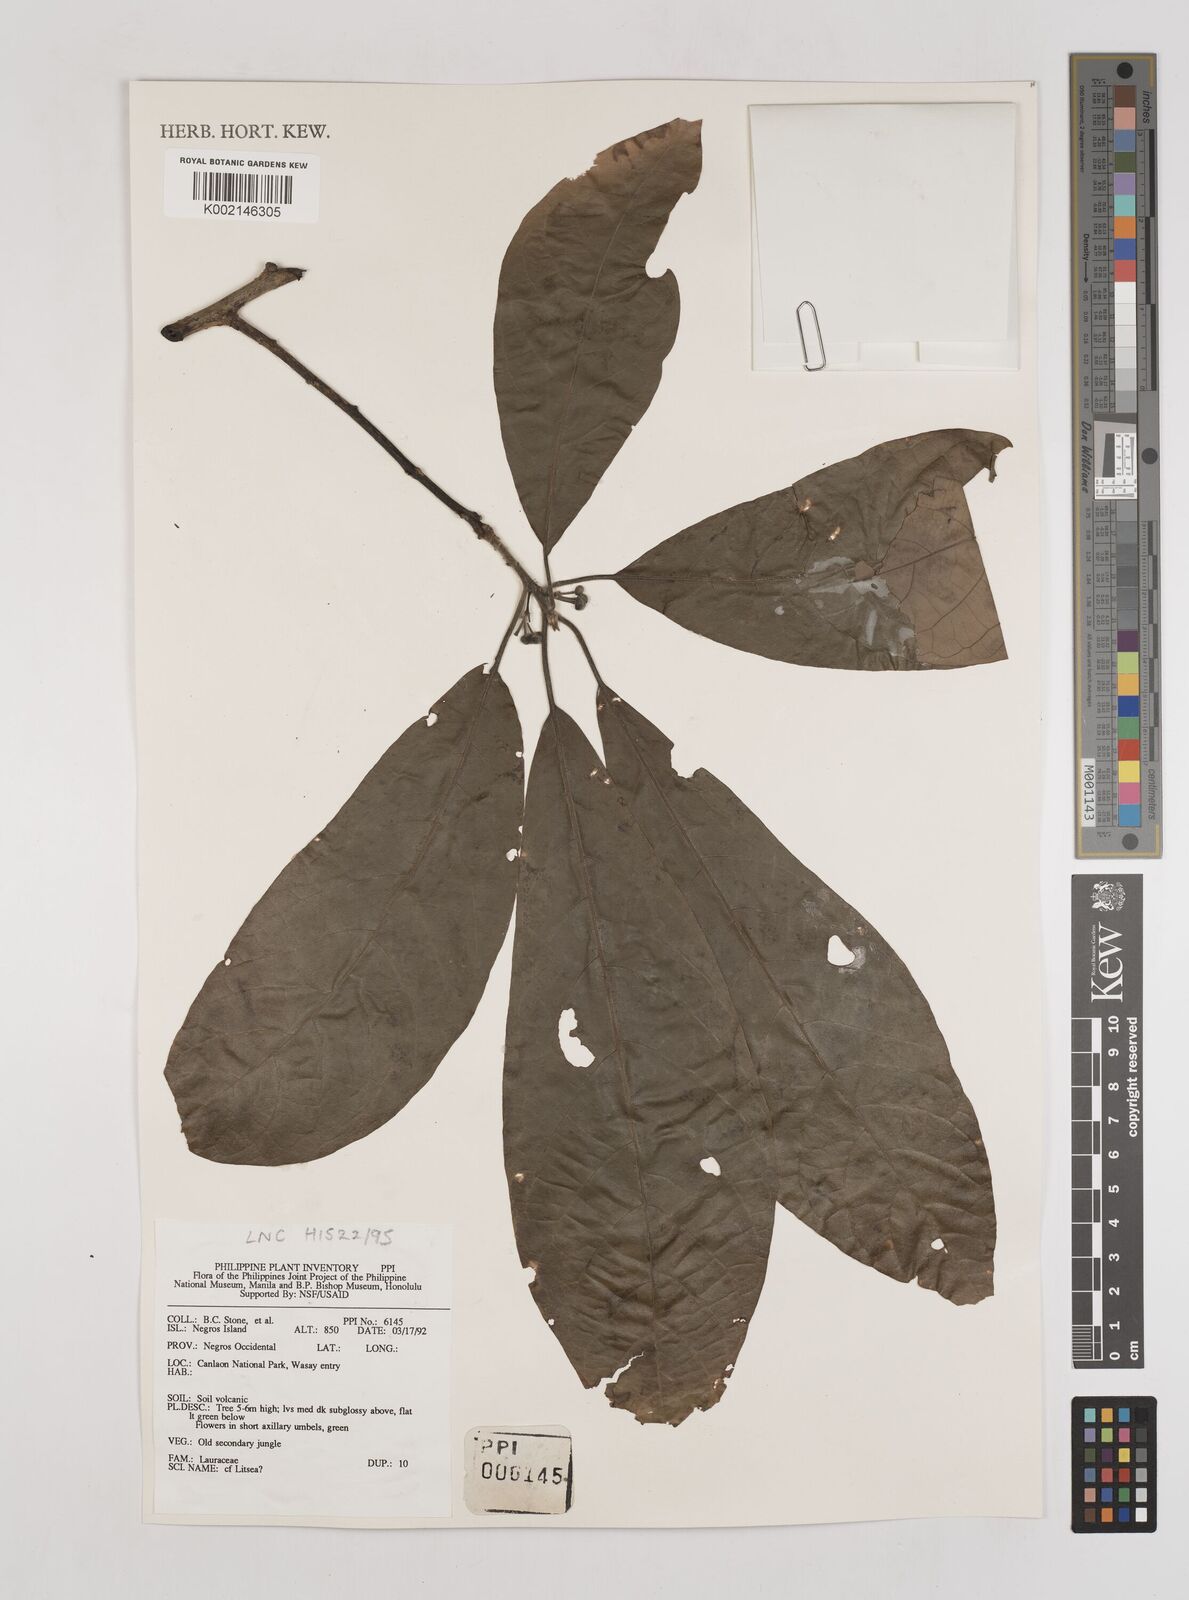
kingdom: Plantae
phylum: Tracheophyta
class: Magnoliopsida
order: Laurales
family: Lauraceae
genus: Litsea
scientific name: Litsea
